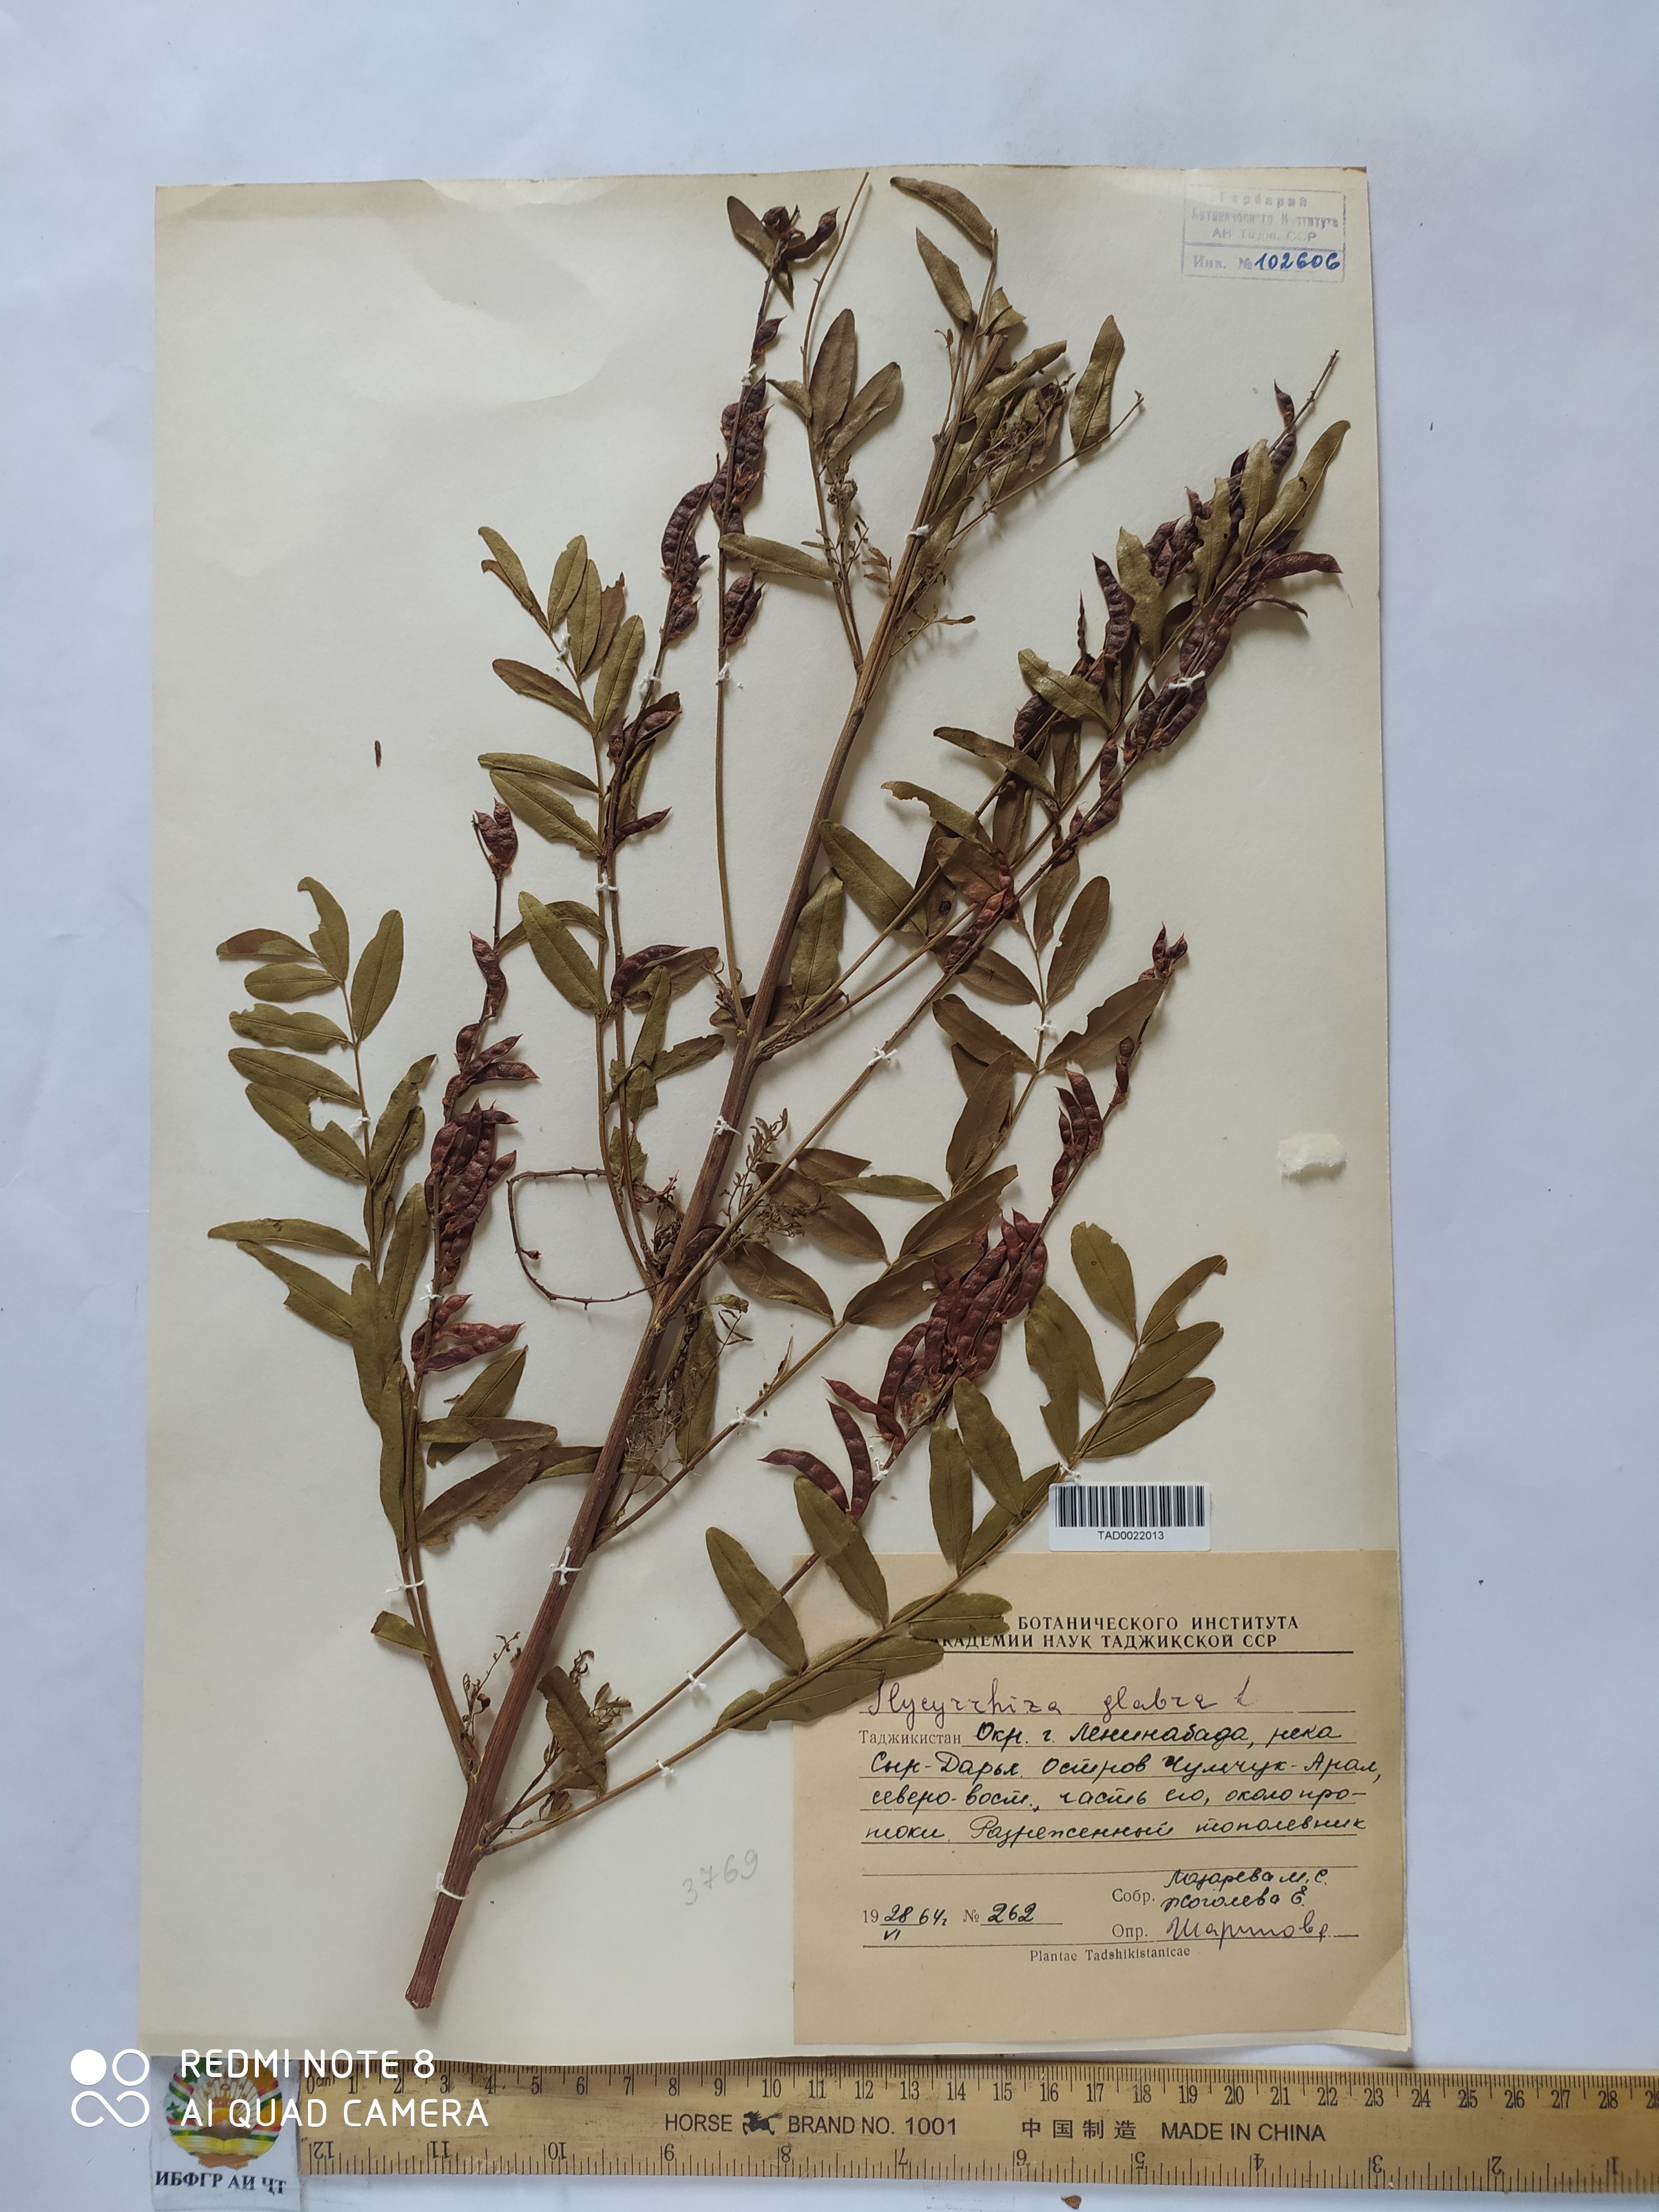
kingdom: Plantae
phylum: Tracheophyta
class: Magnoliopsida
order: Fabales
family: Fabaceae
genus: Glycyrrhiza
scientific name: Glycyrrhiza aspera
